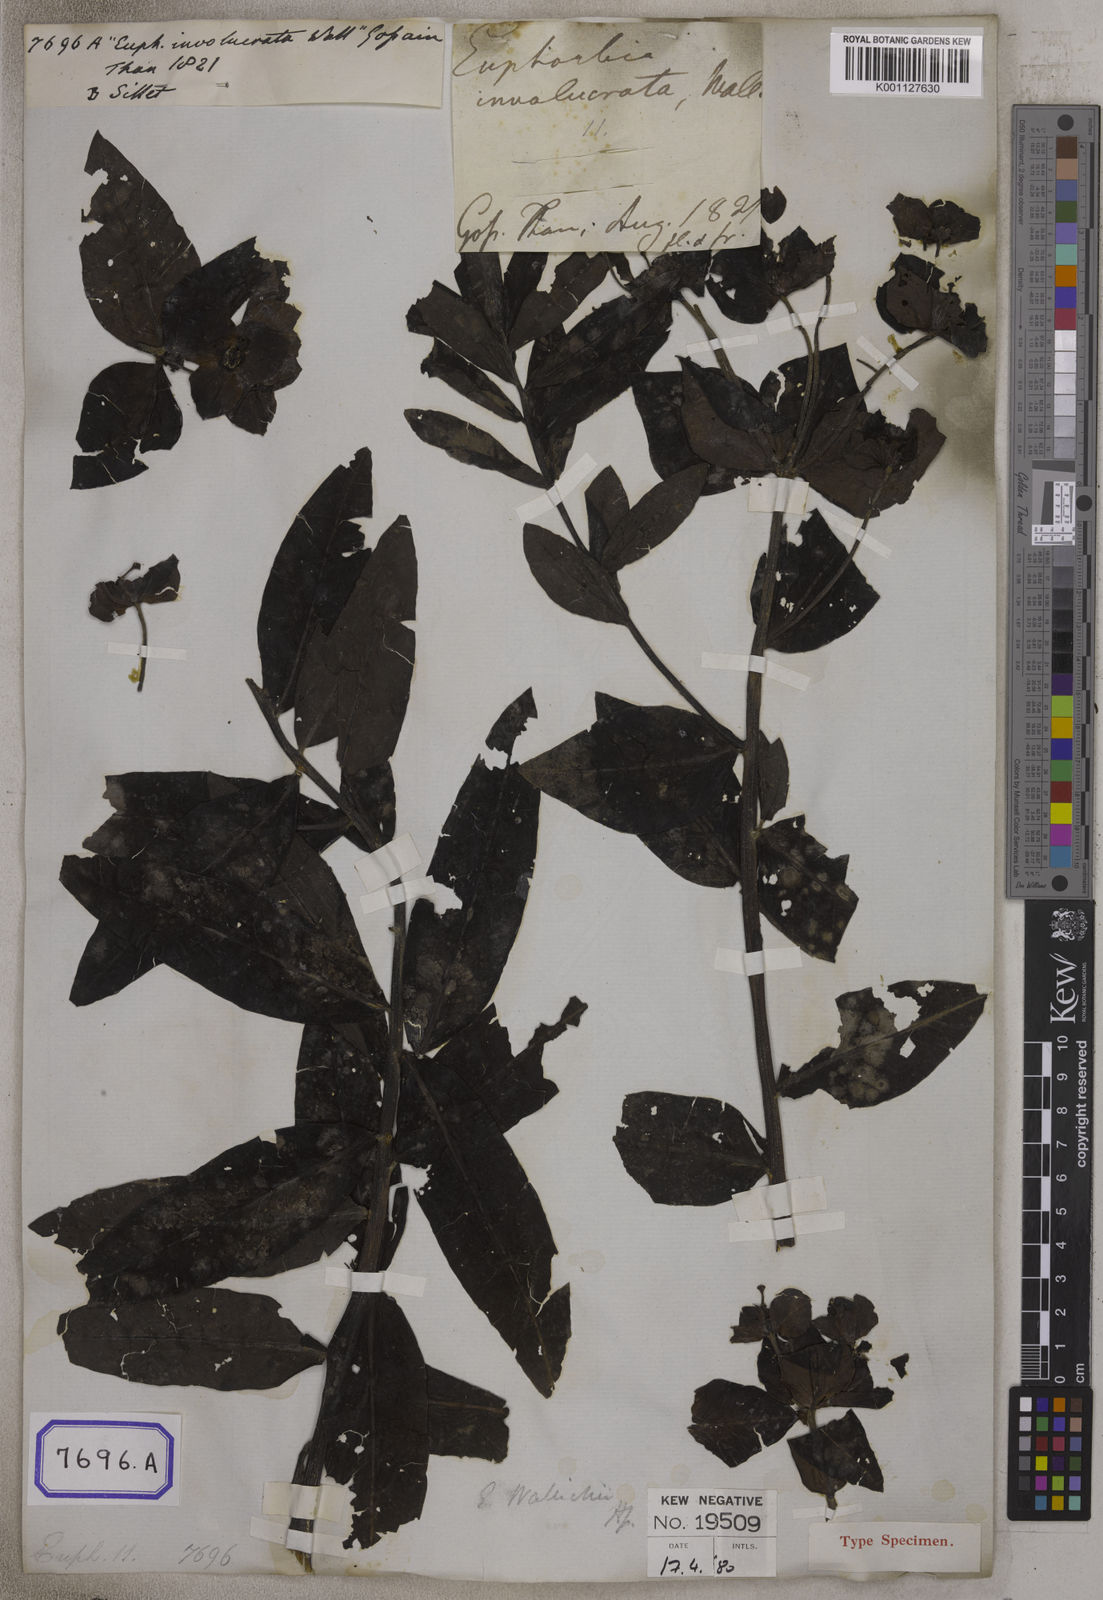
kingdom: Plantae
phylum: Tracheophyta
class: Magnoliopsida
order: Malpighiales
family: Euphorbiaceae
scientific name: Euphorbiaceae
